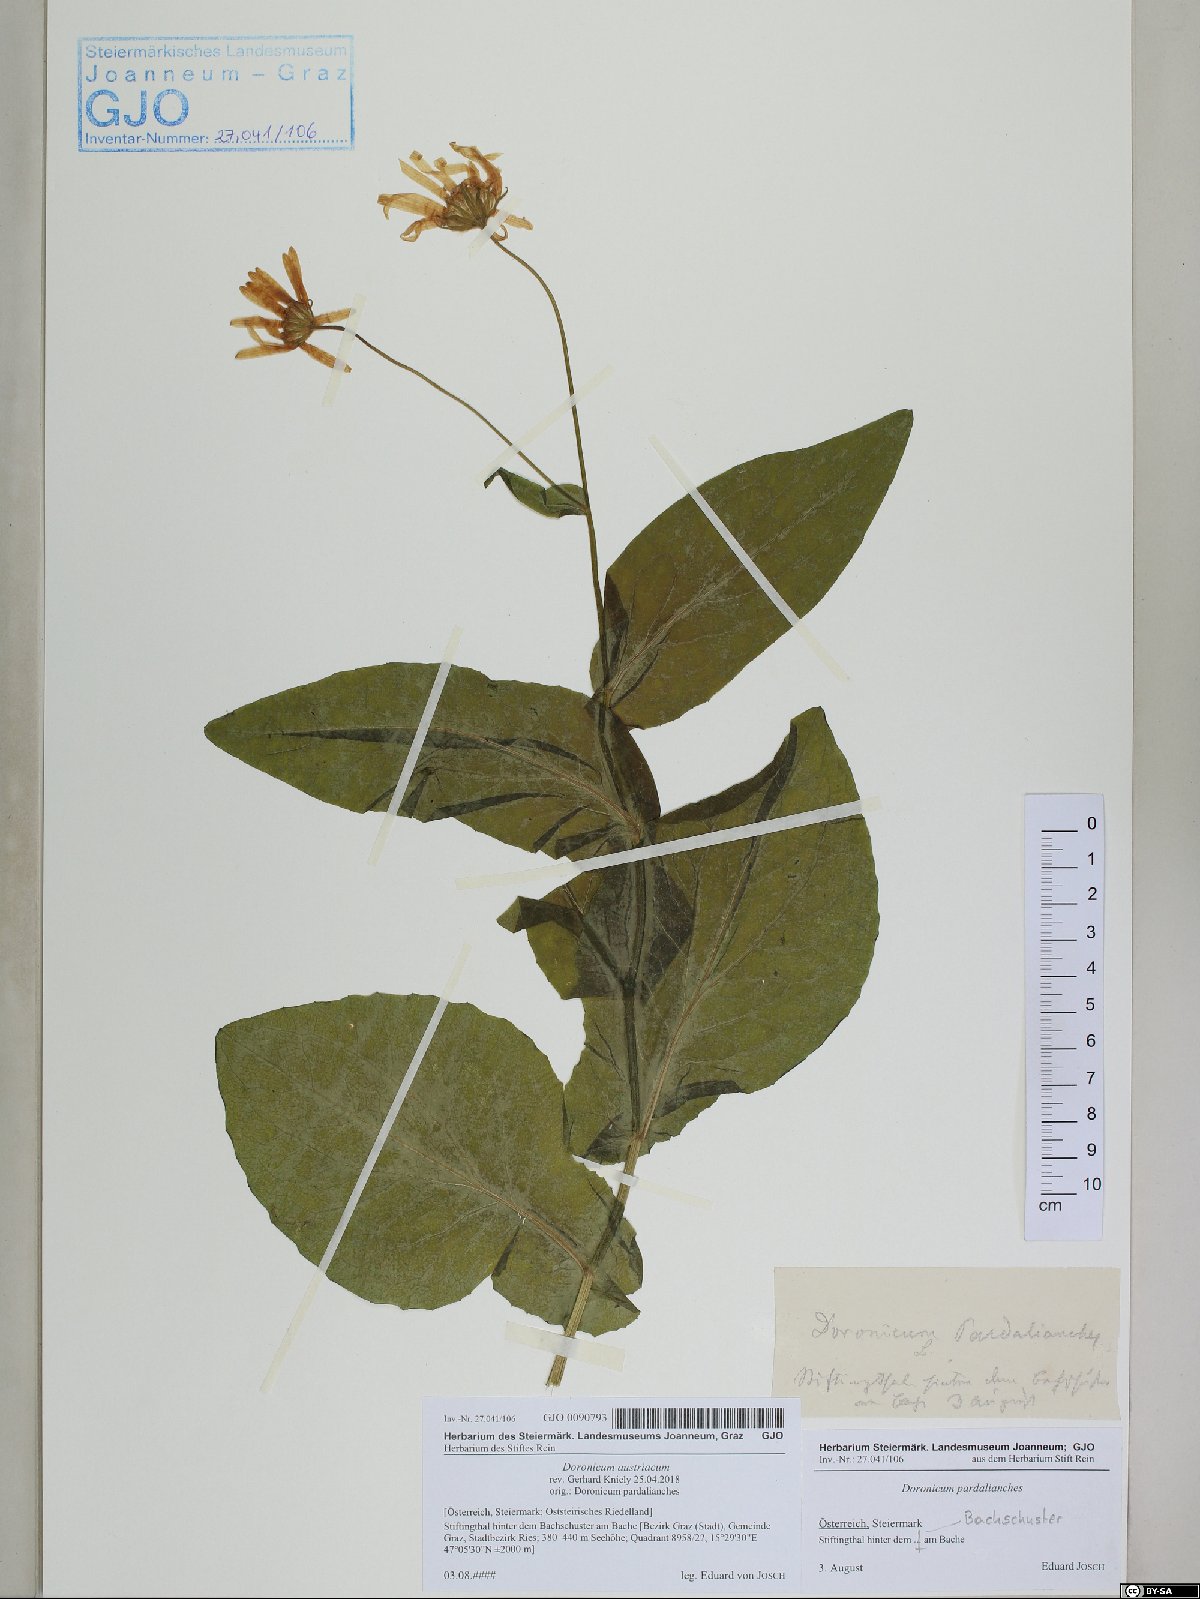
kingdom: Plantae
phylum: Tracheophyta
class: Magnoliopsida
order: Asterales
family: Asteraceae
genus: Doronicum
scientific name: Doronicum austriacum
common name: Austrian leopard's-bane
